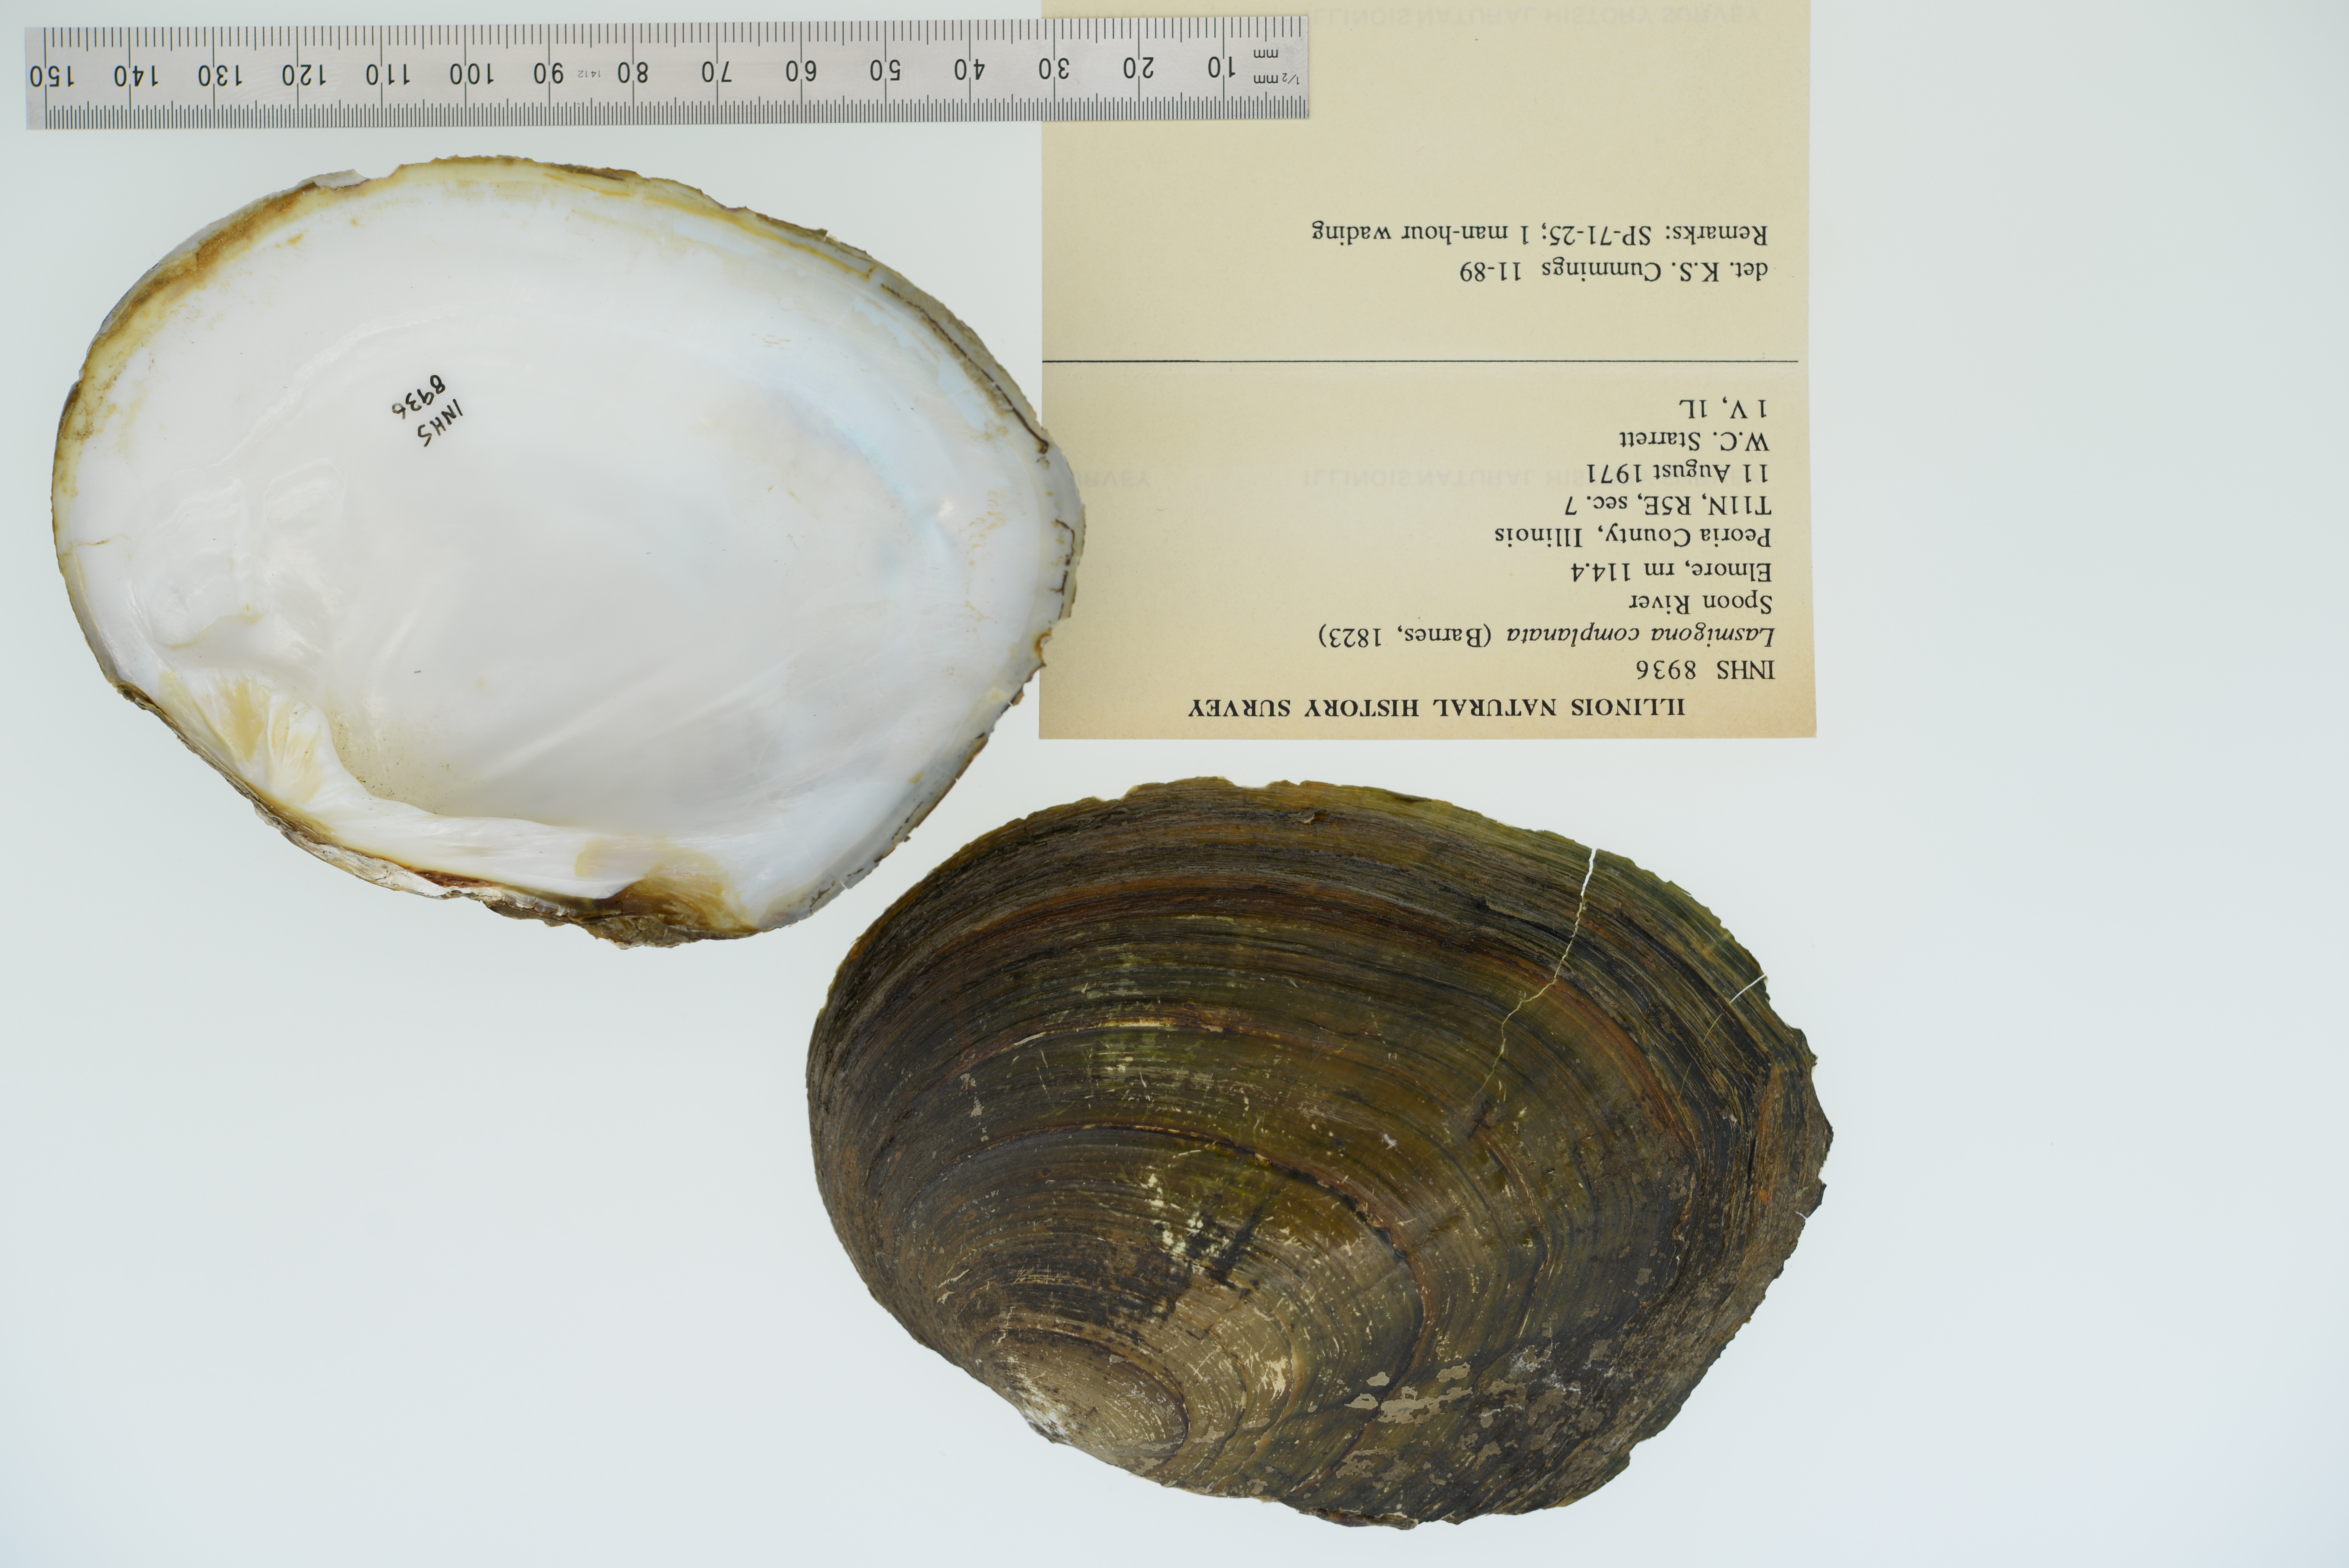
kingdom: Animalia
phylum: Mollusca
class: Bivalvia
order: Unionida
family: Unionidae
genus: Lasmigona
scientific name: Lasmigona complanata
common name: White heelsplitter
